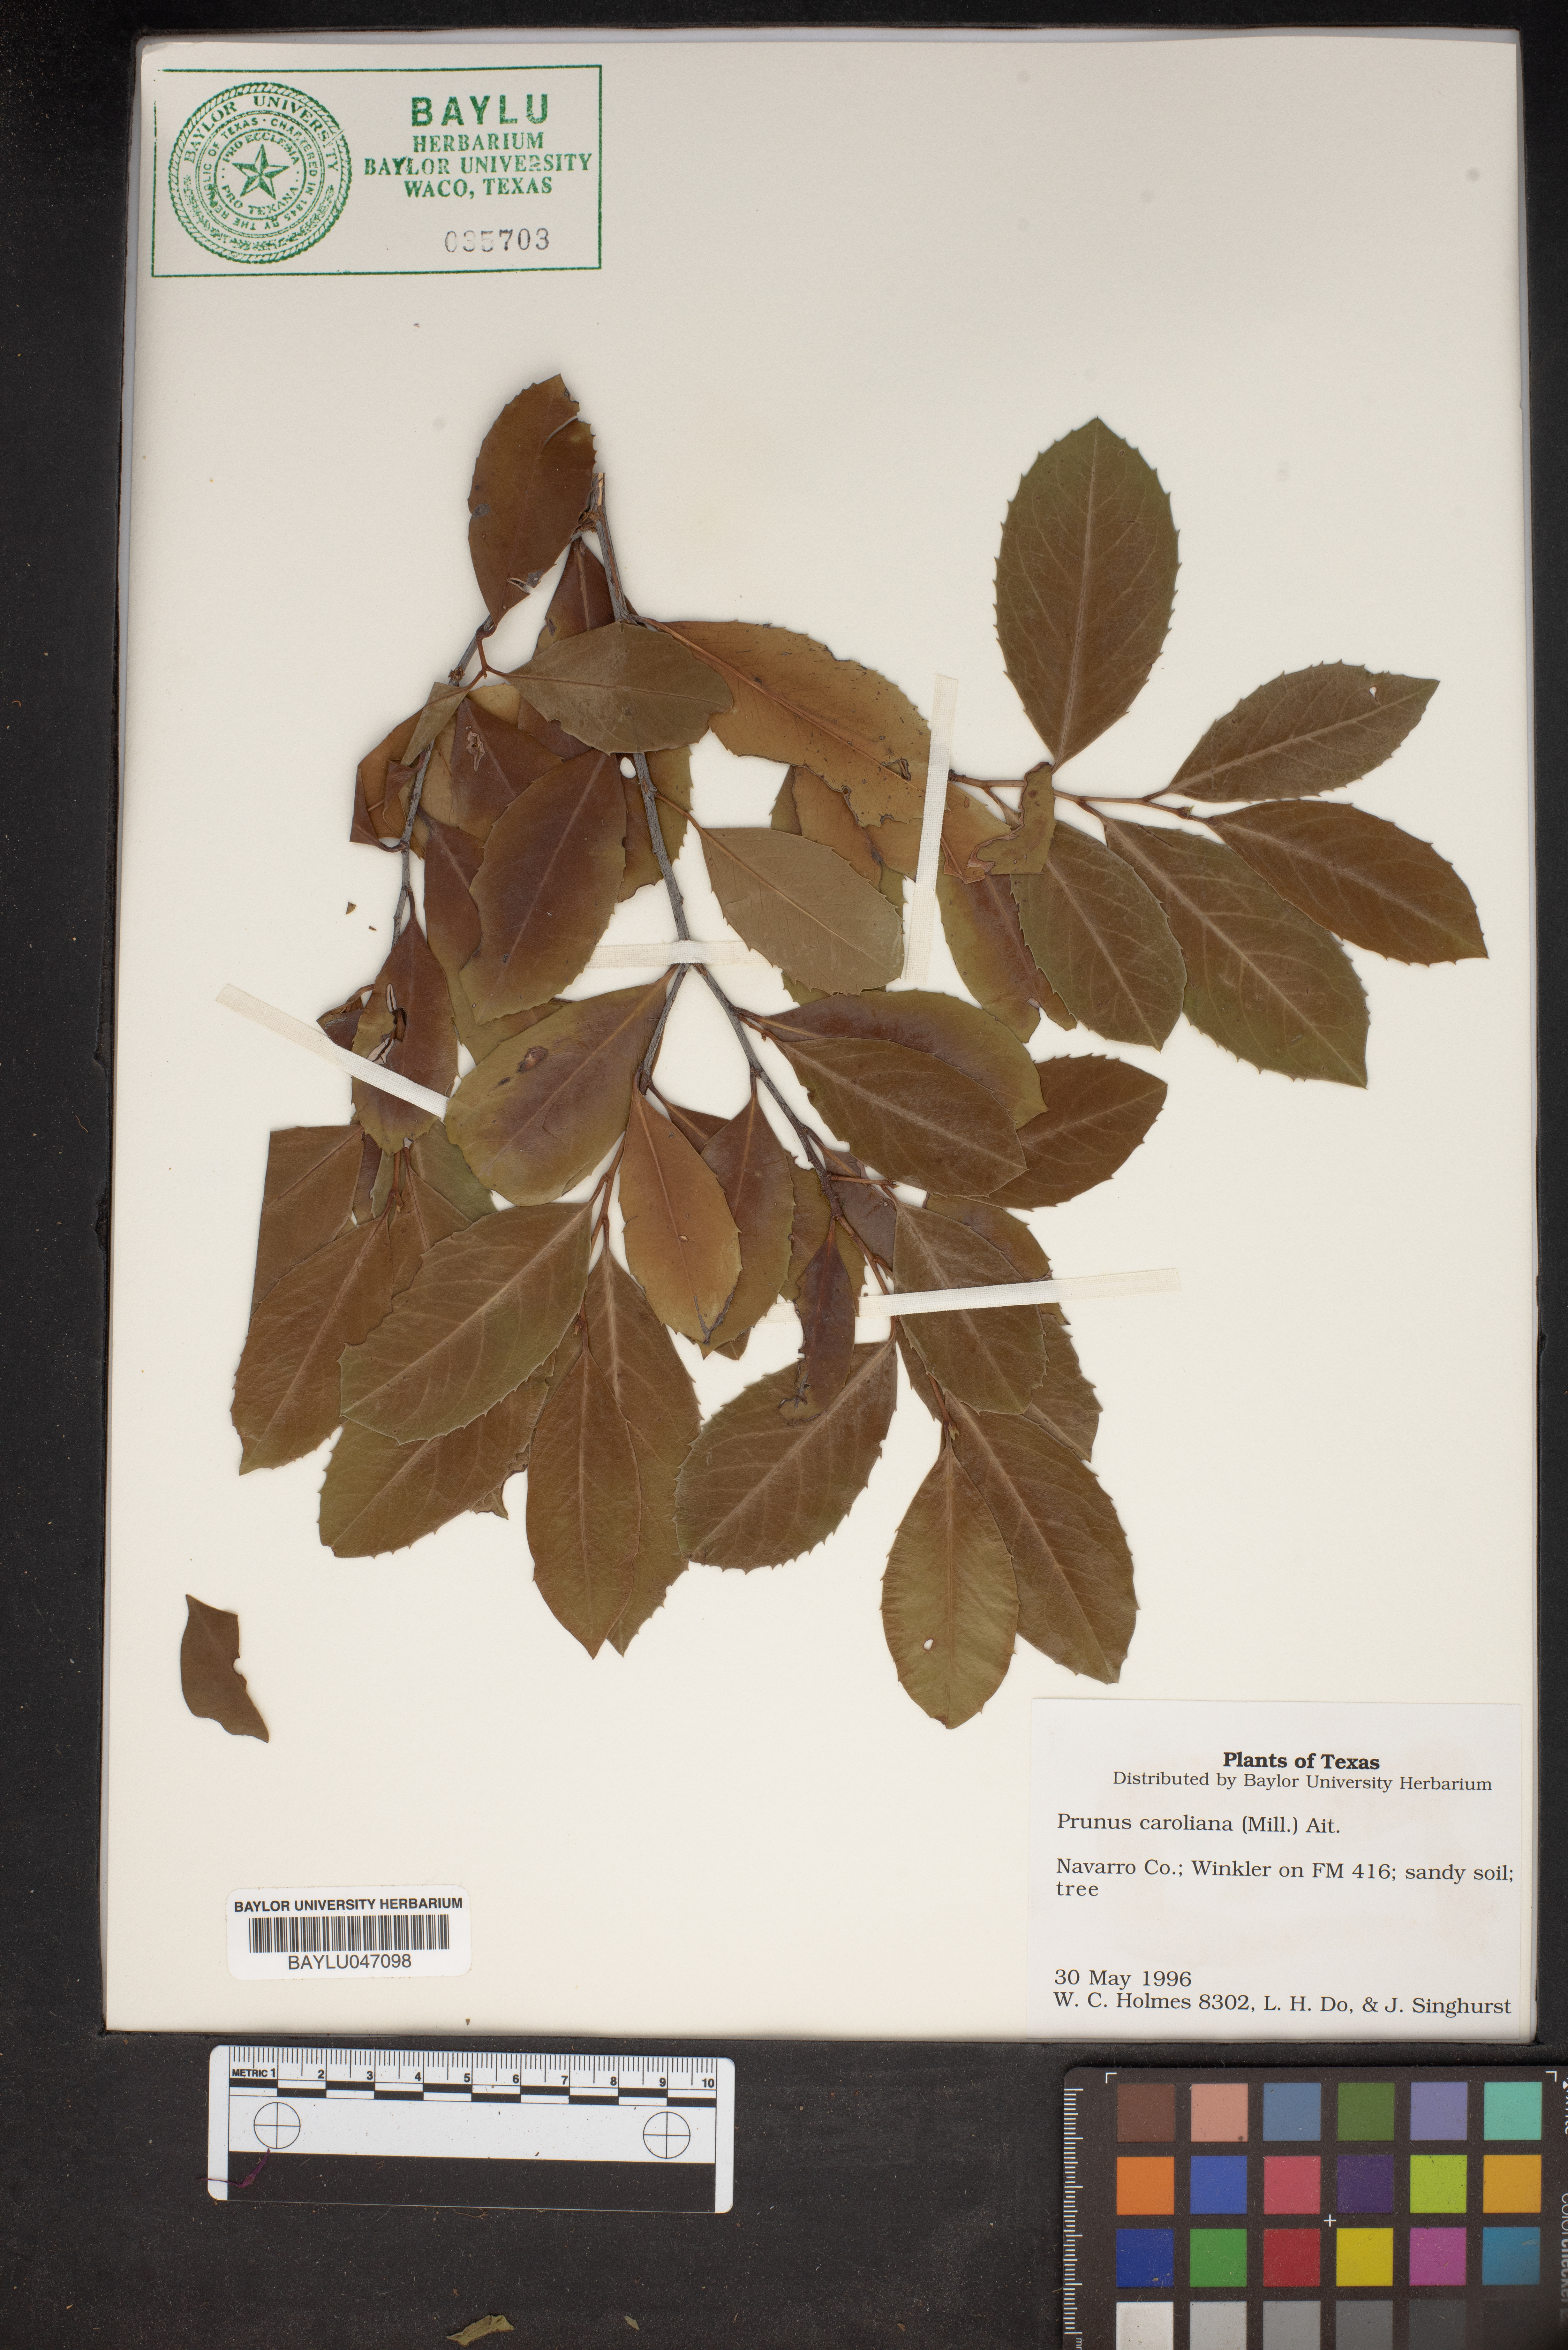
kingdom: Plantae
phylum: Tracheophyta
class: Magnoliopsida
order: Rosales
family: Rosaceae
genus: Prunus
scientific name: Prunus caroliniana
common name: Carolina laurel cherry
